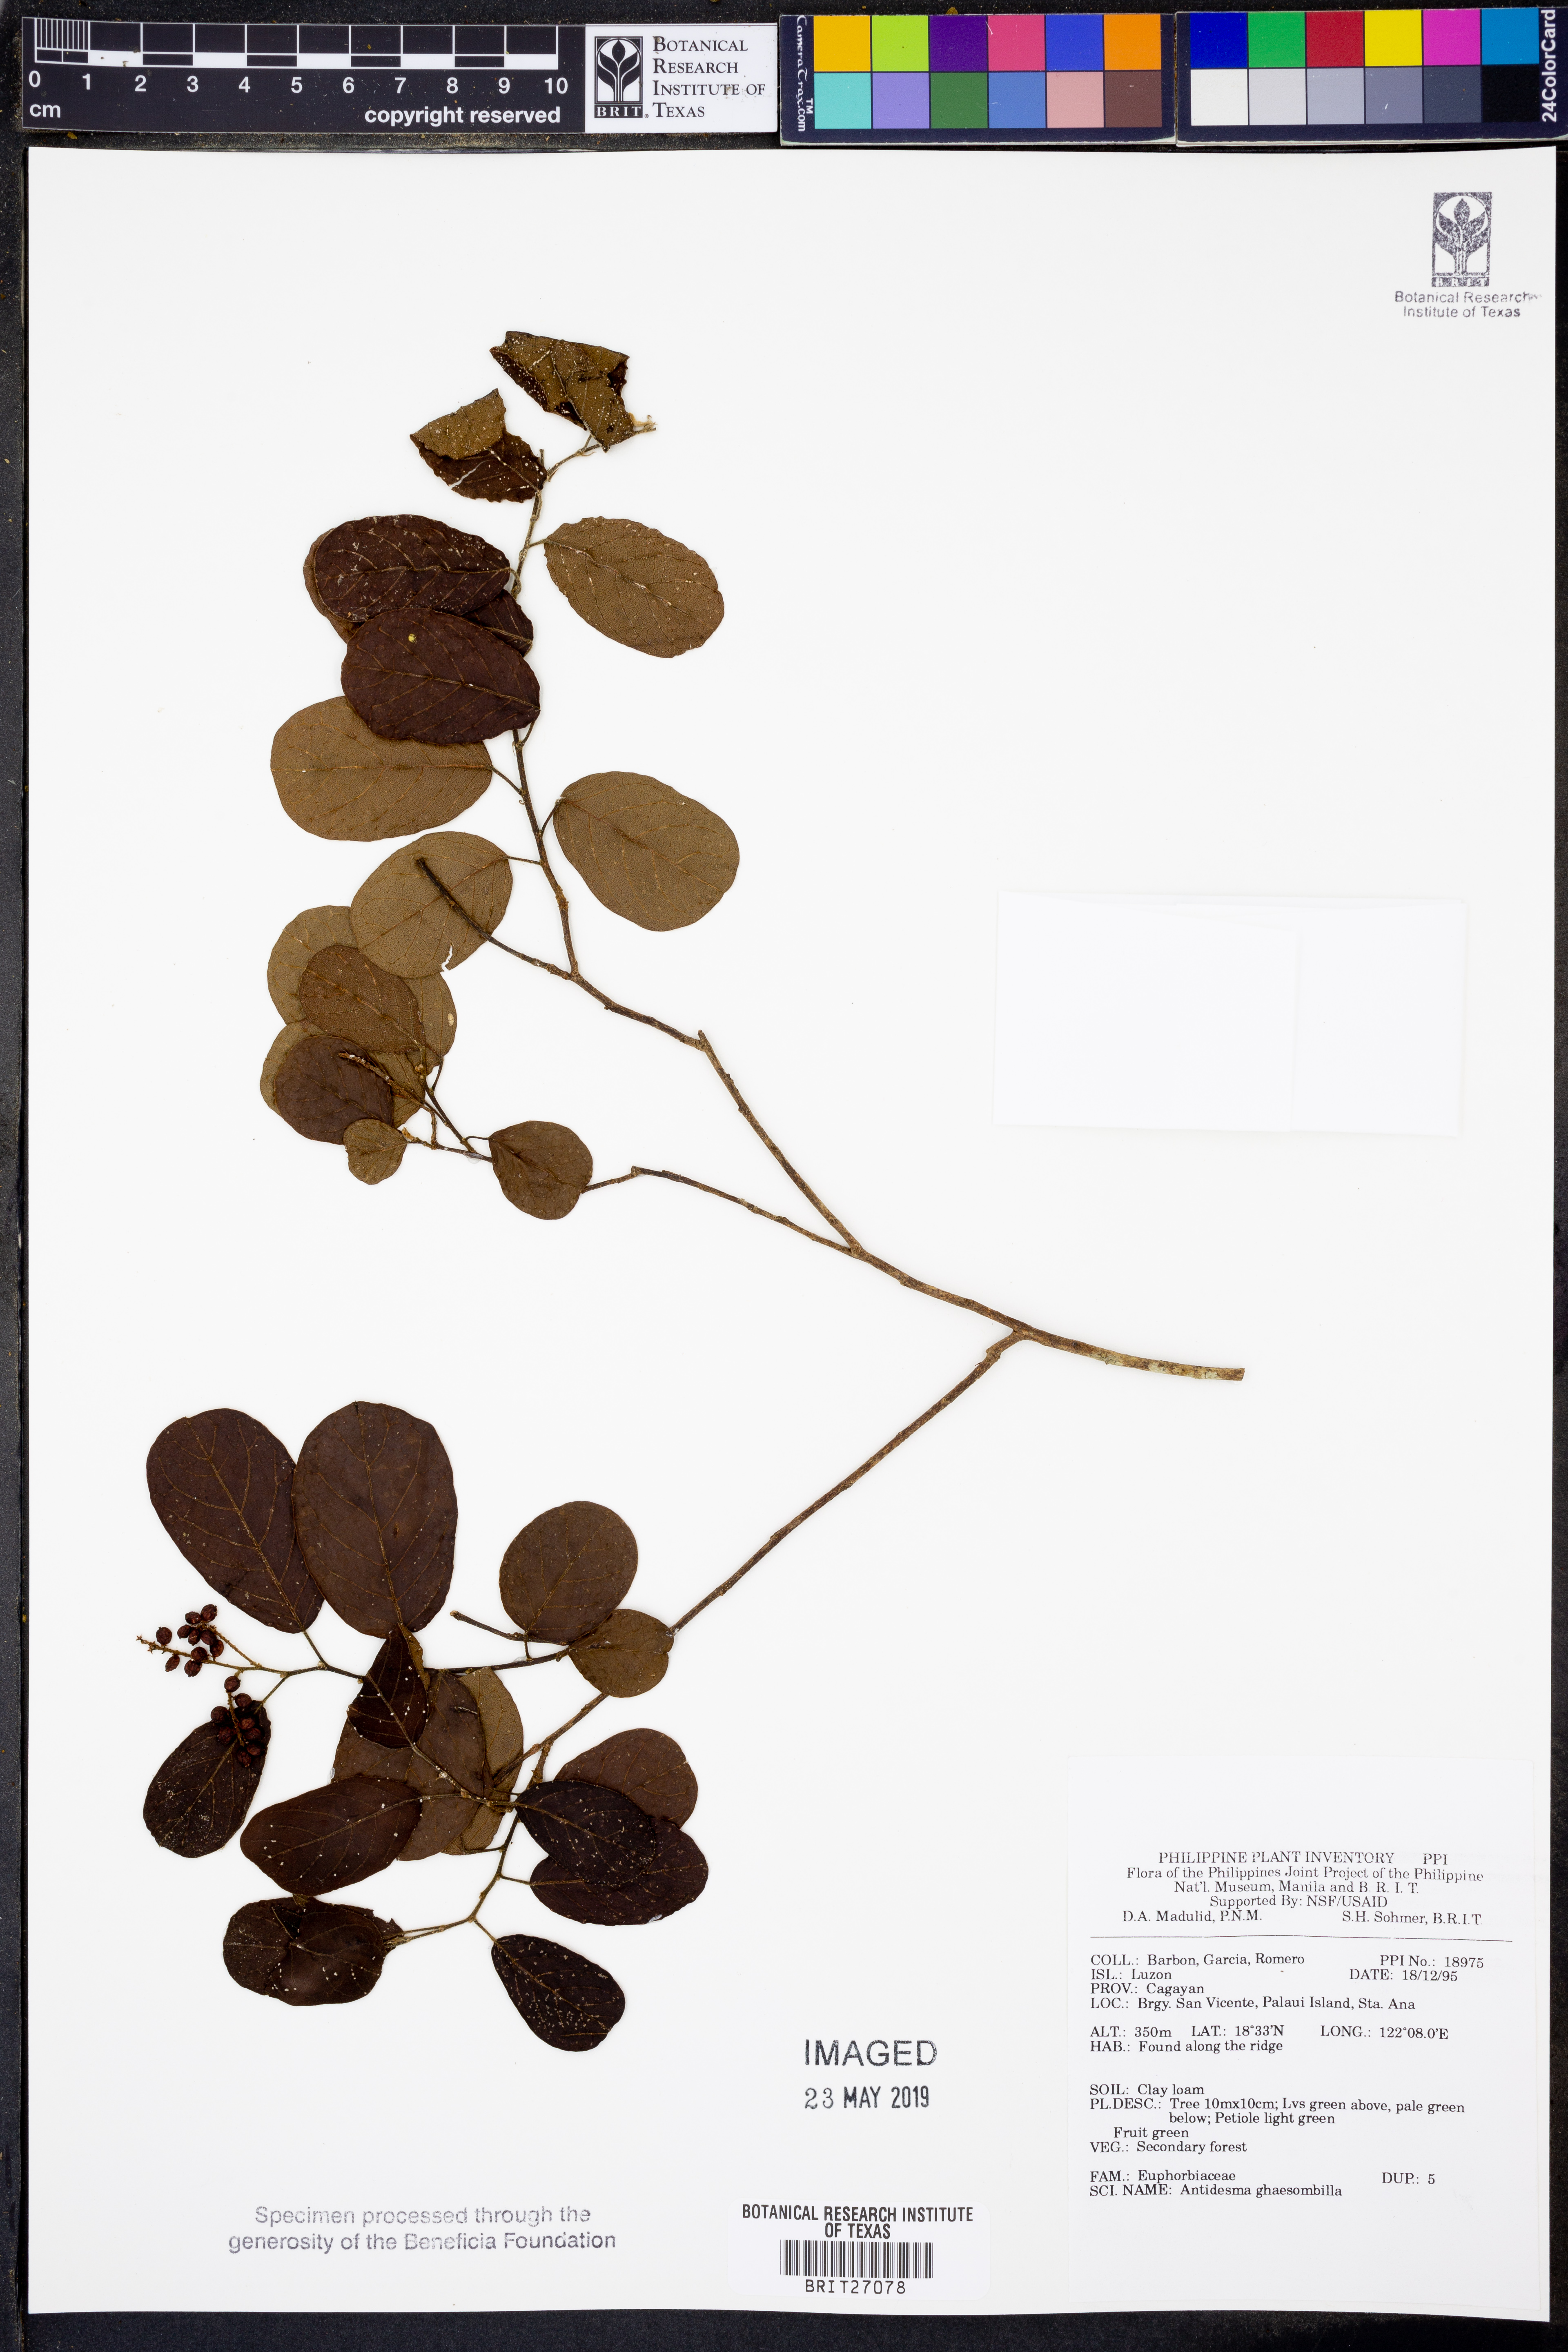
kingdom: Plantae
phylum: Tracheophyta
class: Magnoliopsida
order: Malpighiales
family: Phyllanthaceae
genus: Antidesma
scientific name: Antidesma ghaesembilla
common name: Black currant-tree
